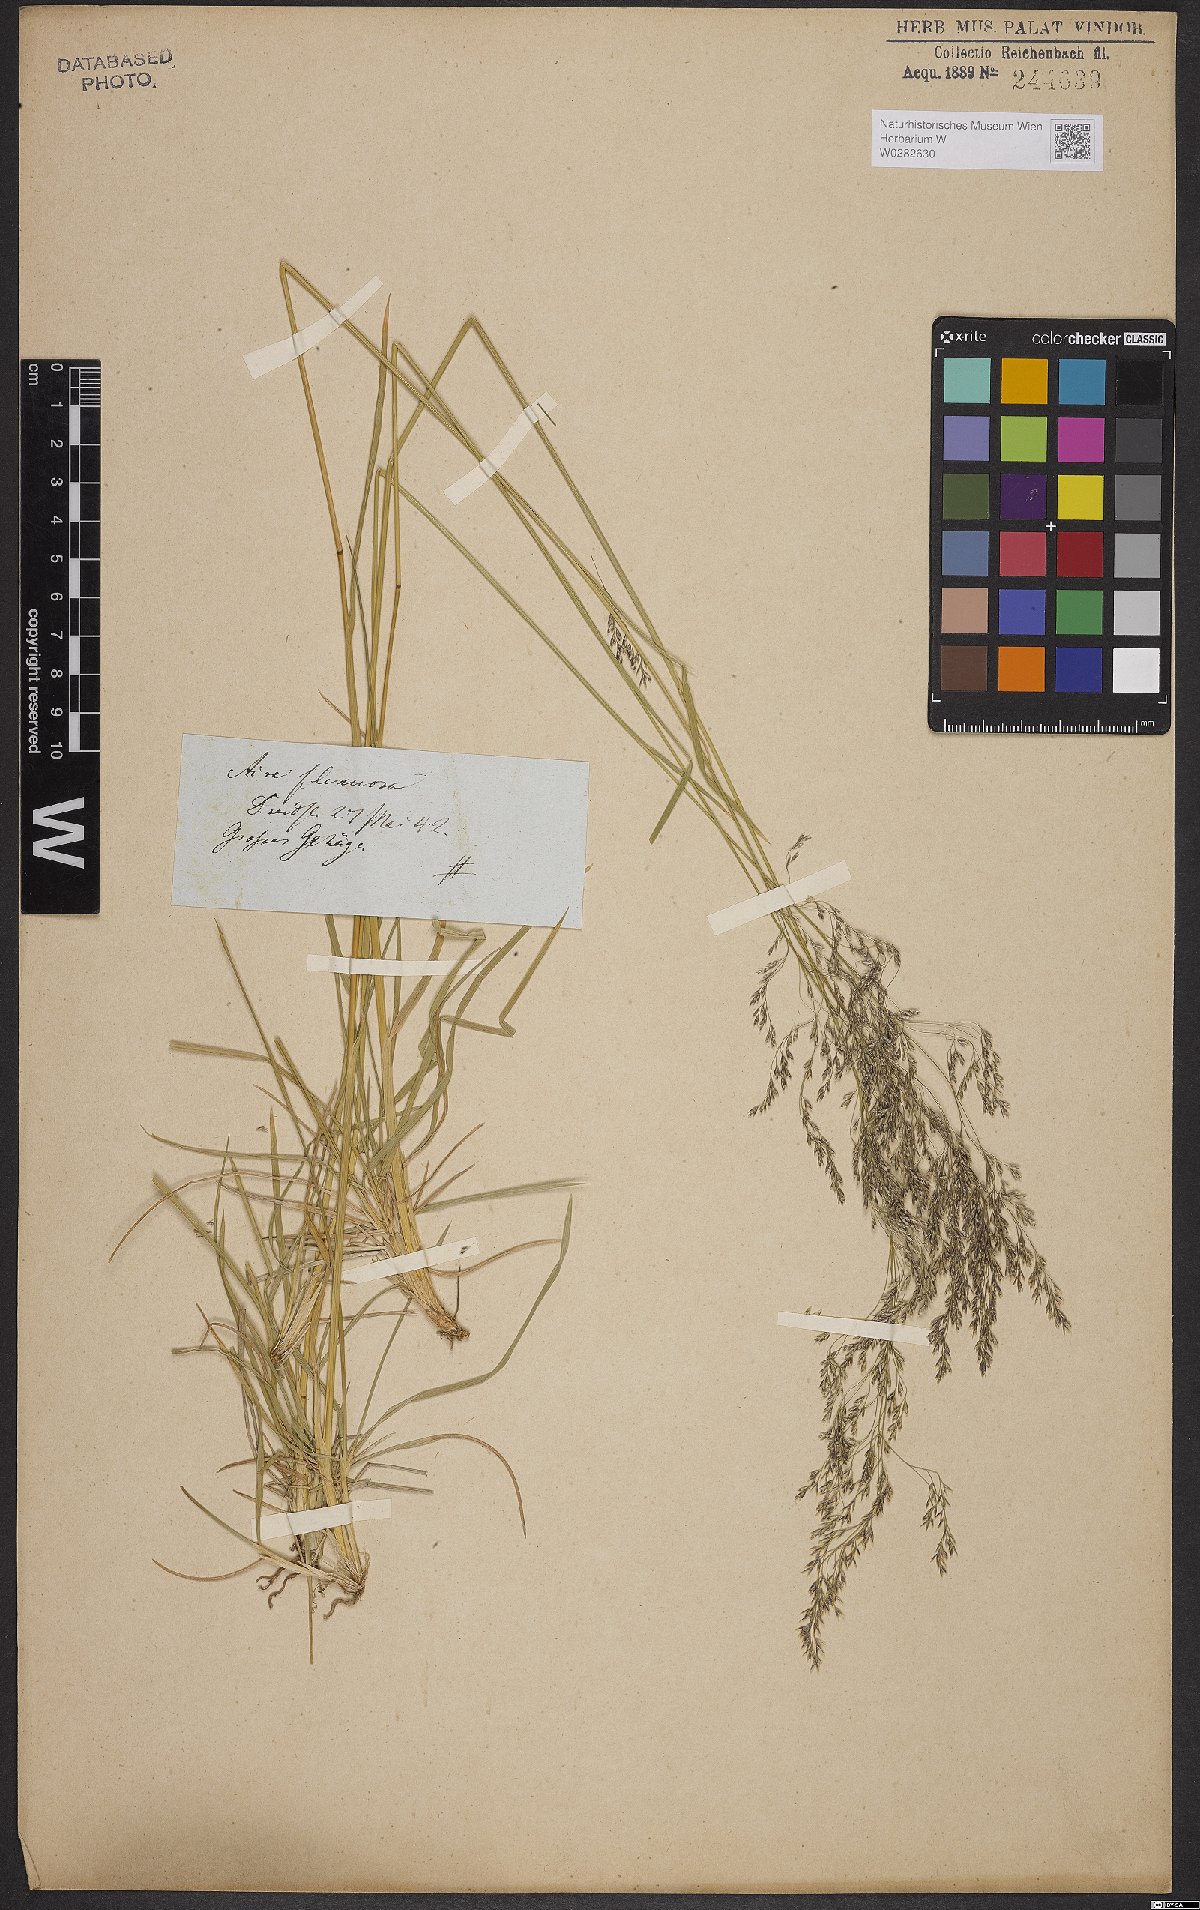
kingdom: Plantae
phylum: Tracheophyta
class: Liliopsida
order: Poales
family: Poaceae
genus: Deschampsia
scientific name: Deschampsia cespitosa
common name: Tufted hair-grass
